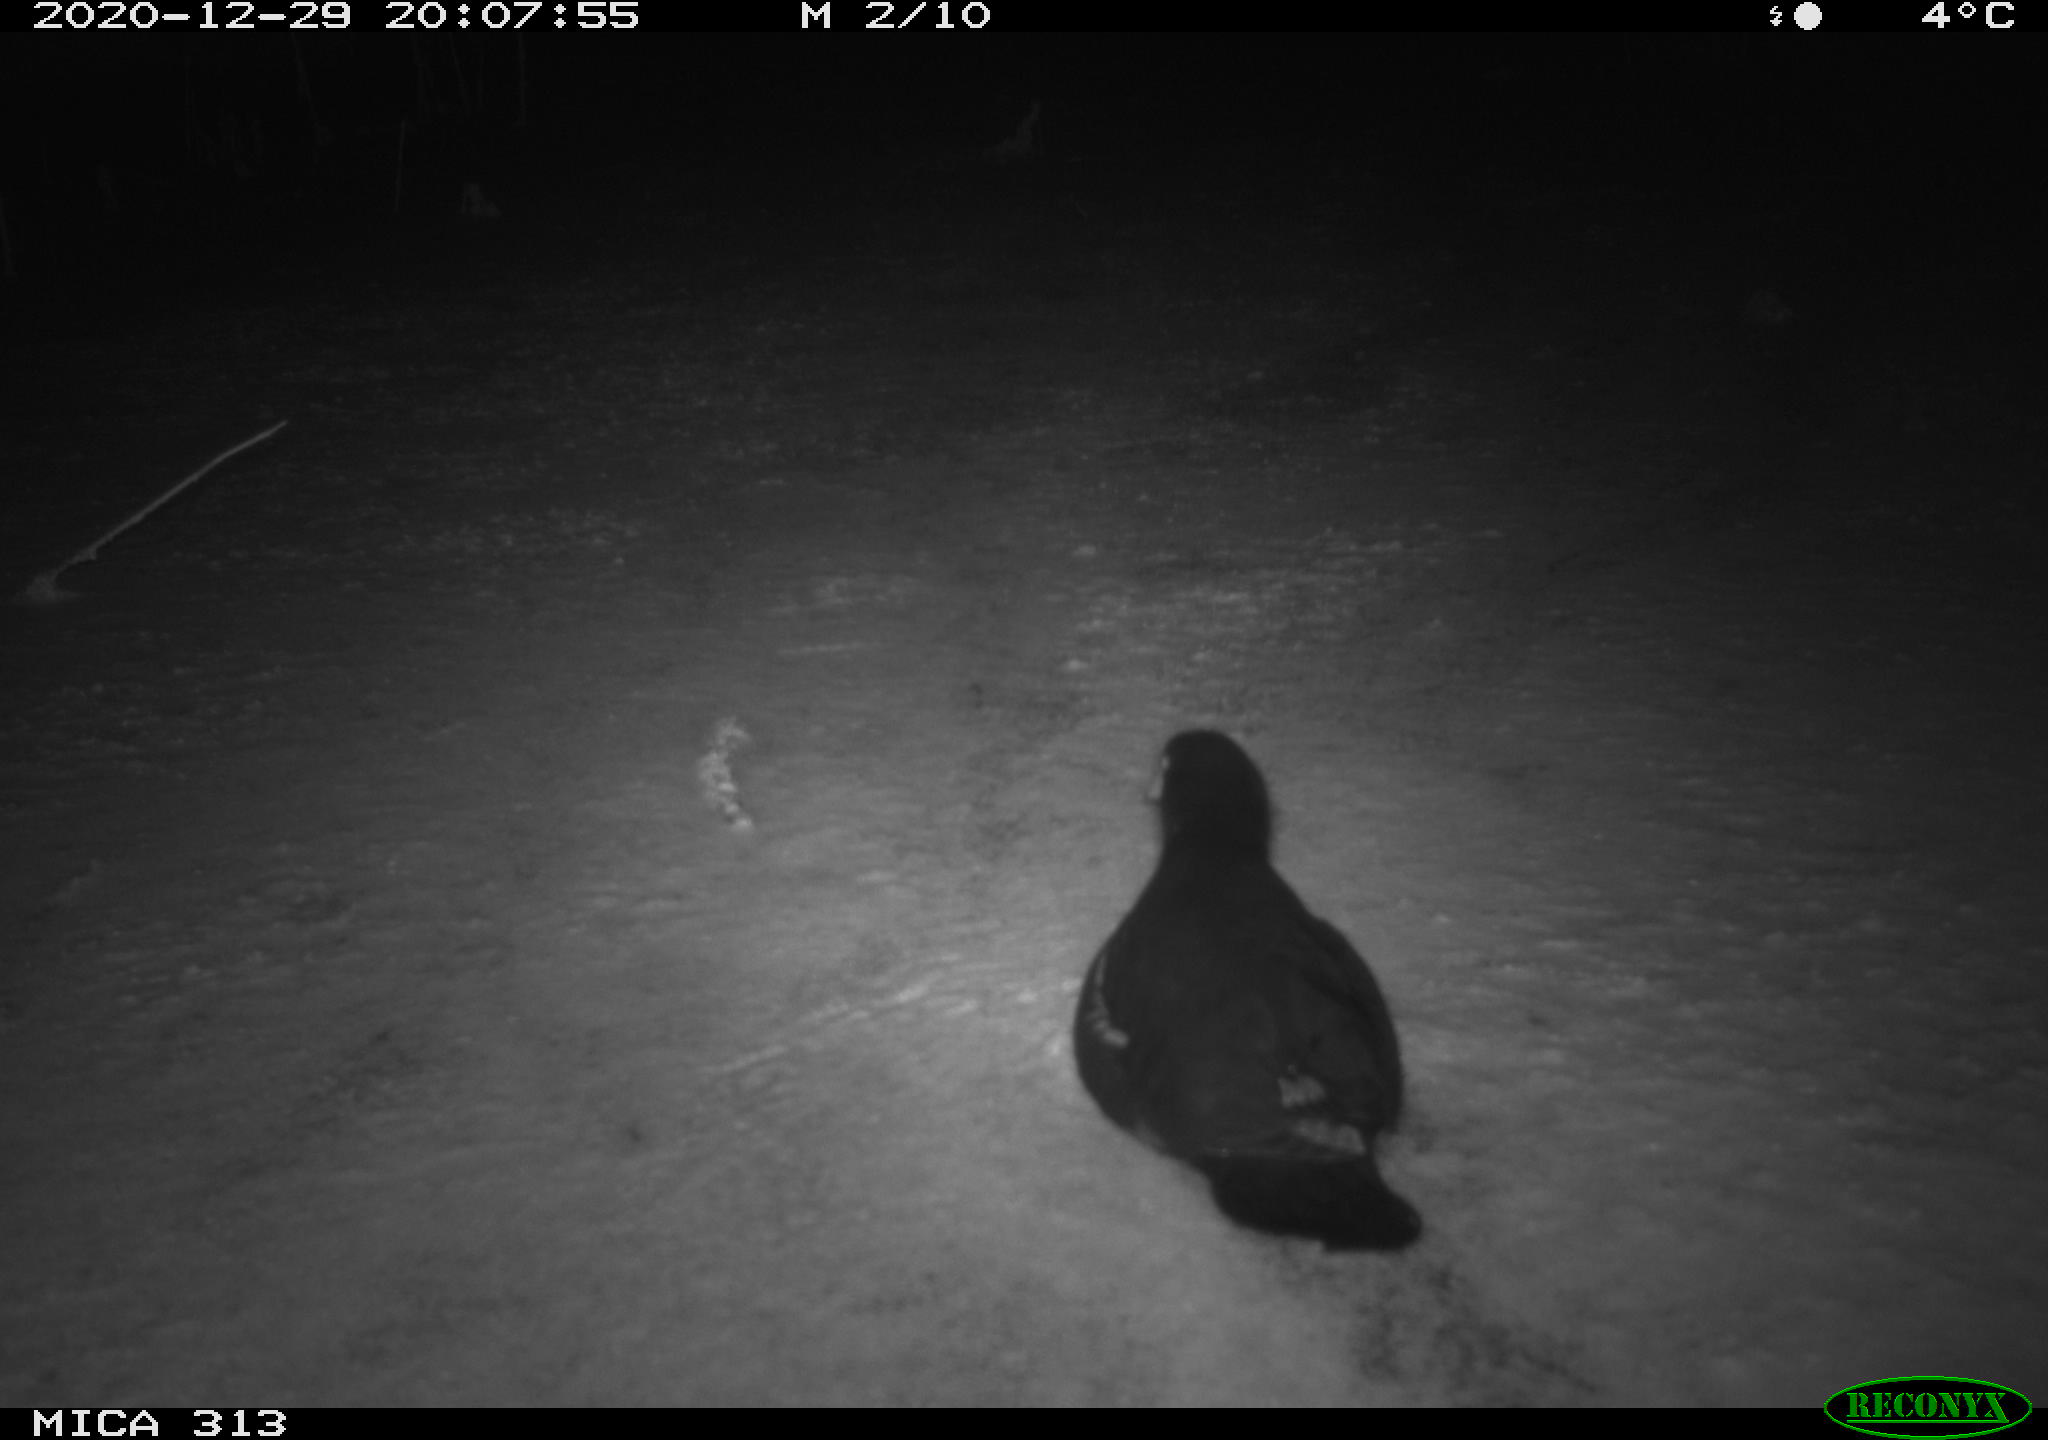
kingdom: Animalia
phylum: Chordata
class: Aves
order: Gruiformes
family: Rallidae
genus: Fulica
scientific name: Fulica atra
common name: Eurasian coot
